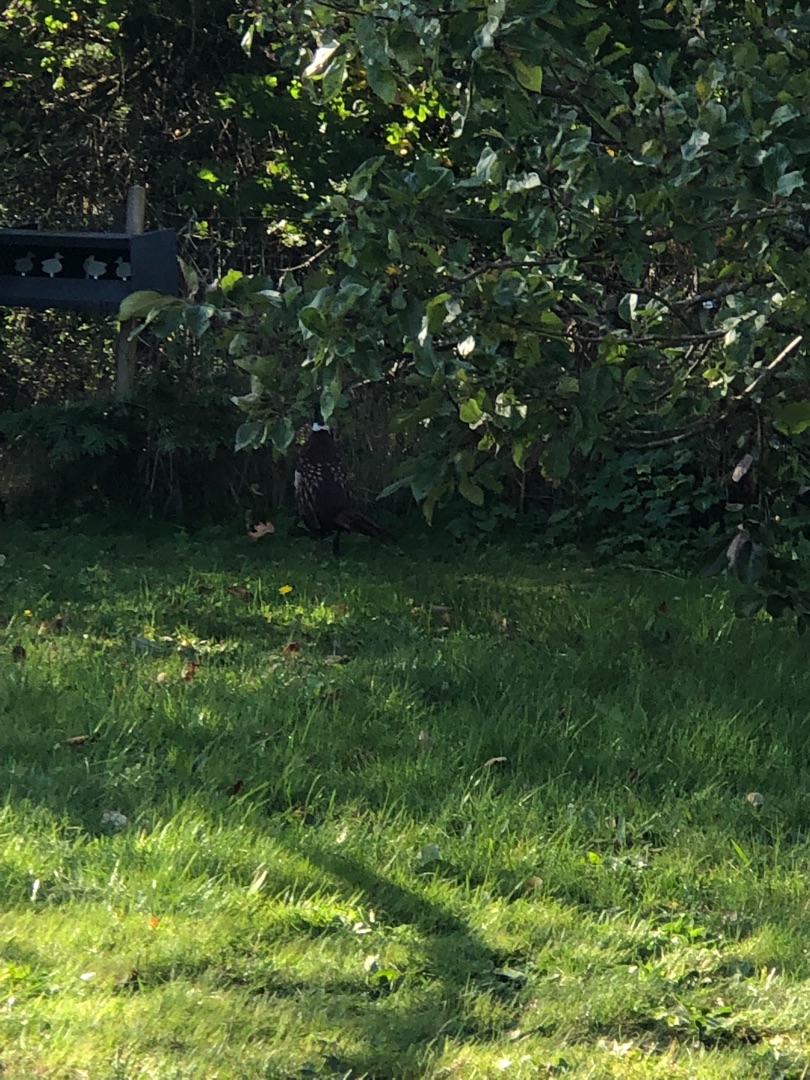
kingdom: Animalia
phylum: Chordata
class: Aves
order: Galliformes
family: Phasianidae
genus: Phasianus
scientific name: Phasianus colchicus
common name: Fasan
